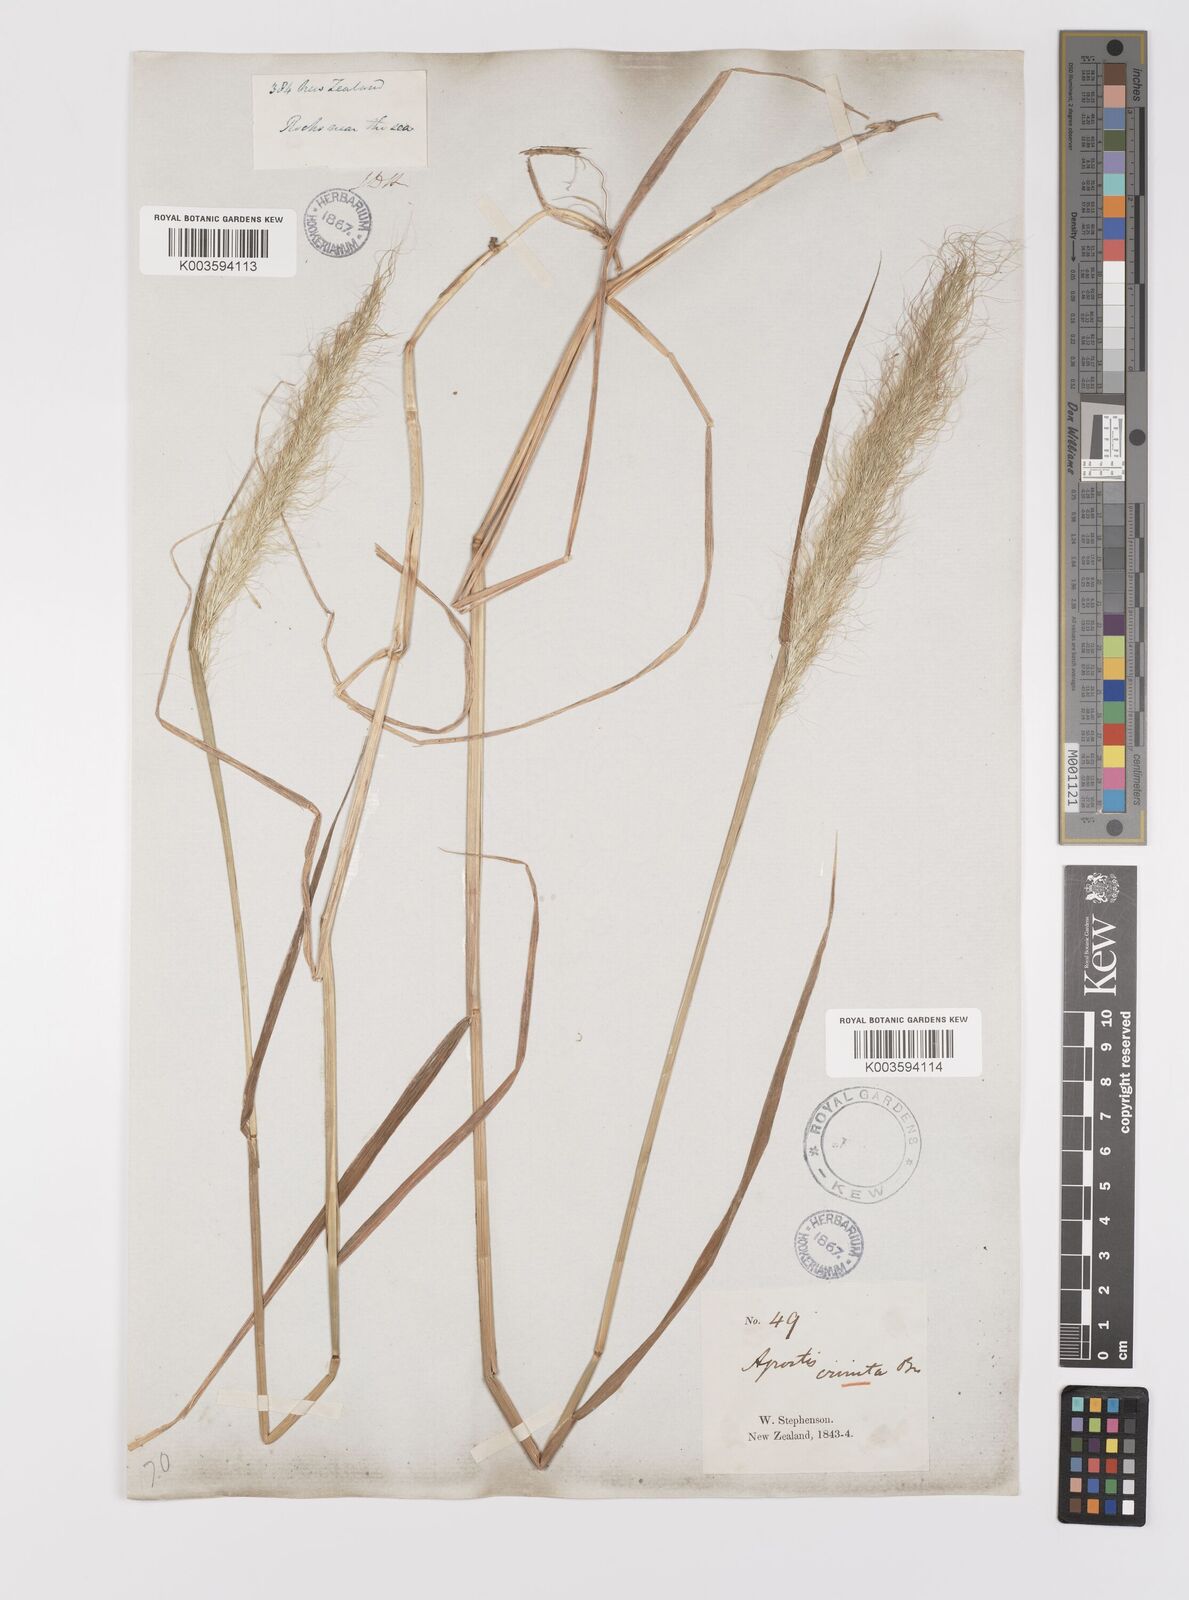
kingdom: Plantae
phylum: Tracheophyta
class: Liliopsida
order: Poales
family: Poaceae
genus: Dichelachne
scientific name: Dichelachne crinita
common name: Clovenfoot plumegrass
